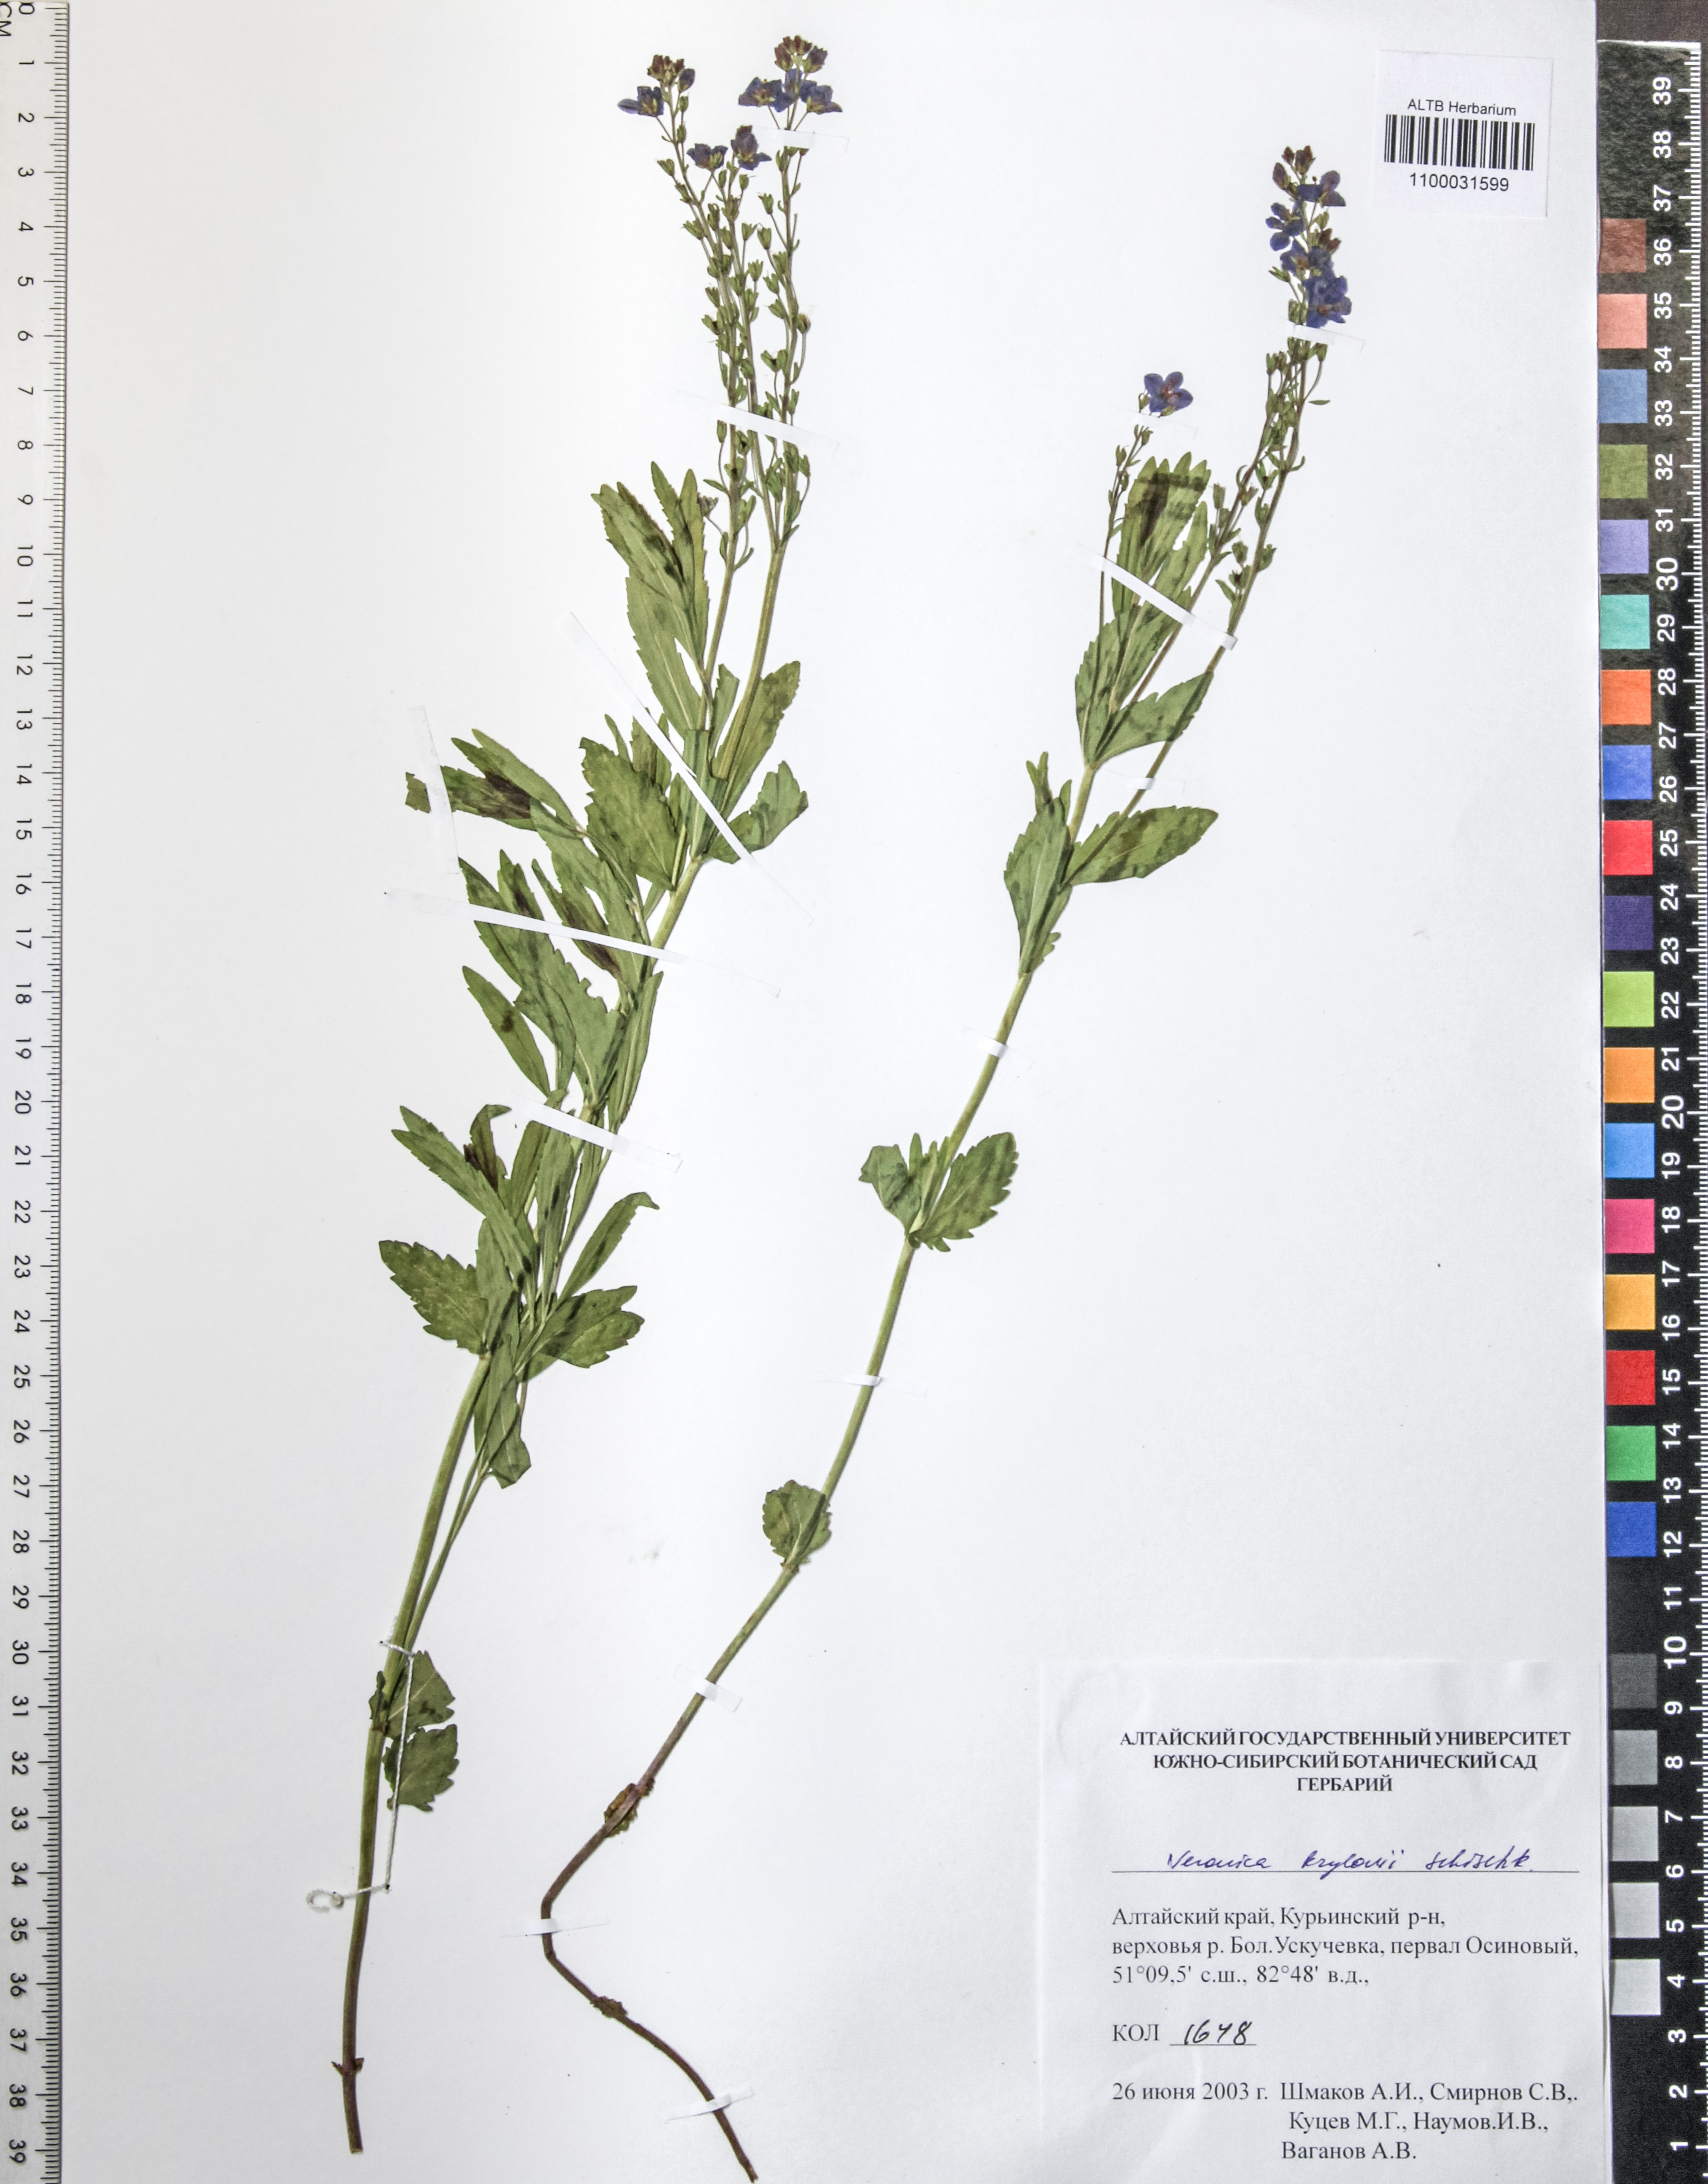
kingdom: Plantae
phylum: Tracheophyta
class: Magnoliopsida
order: Lamiales
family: Plantaginaceae
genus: Veronica
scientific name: Veronica krylovii
